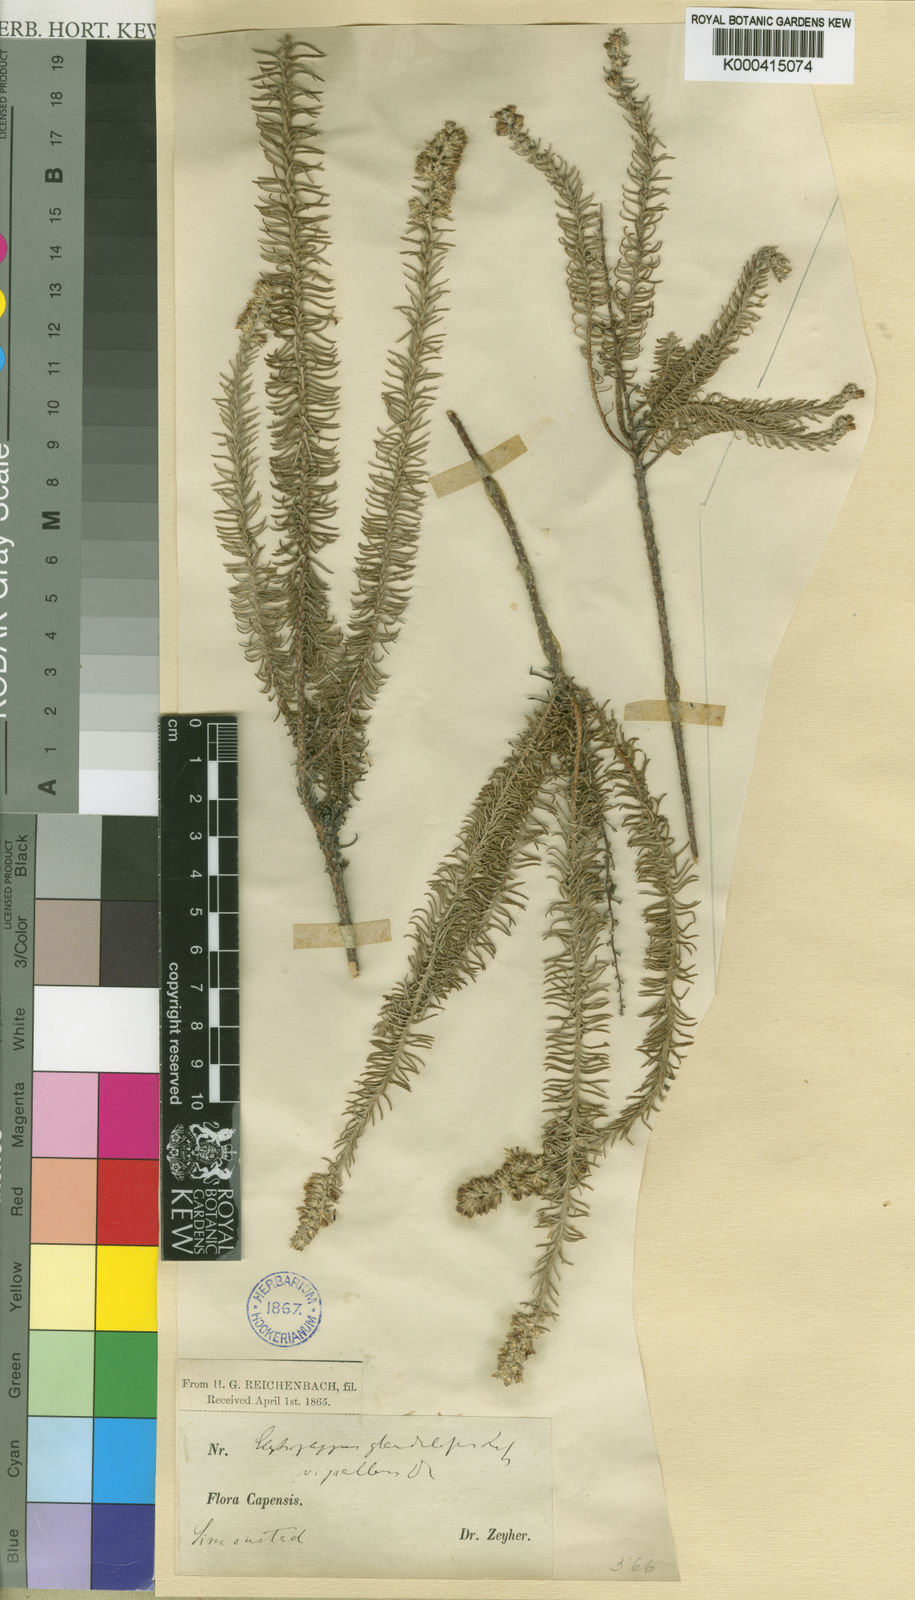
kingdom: Plantae
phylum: Tracheophyta
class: Magnoliopsida
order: Asterales
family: Asteraceae
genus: Elytropappus
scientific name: Elytropappus
